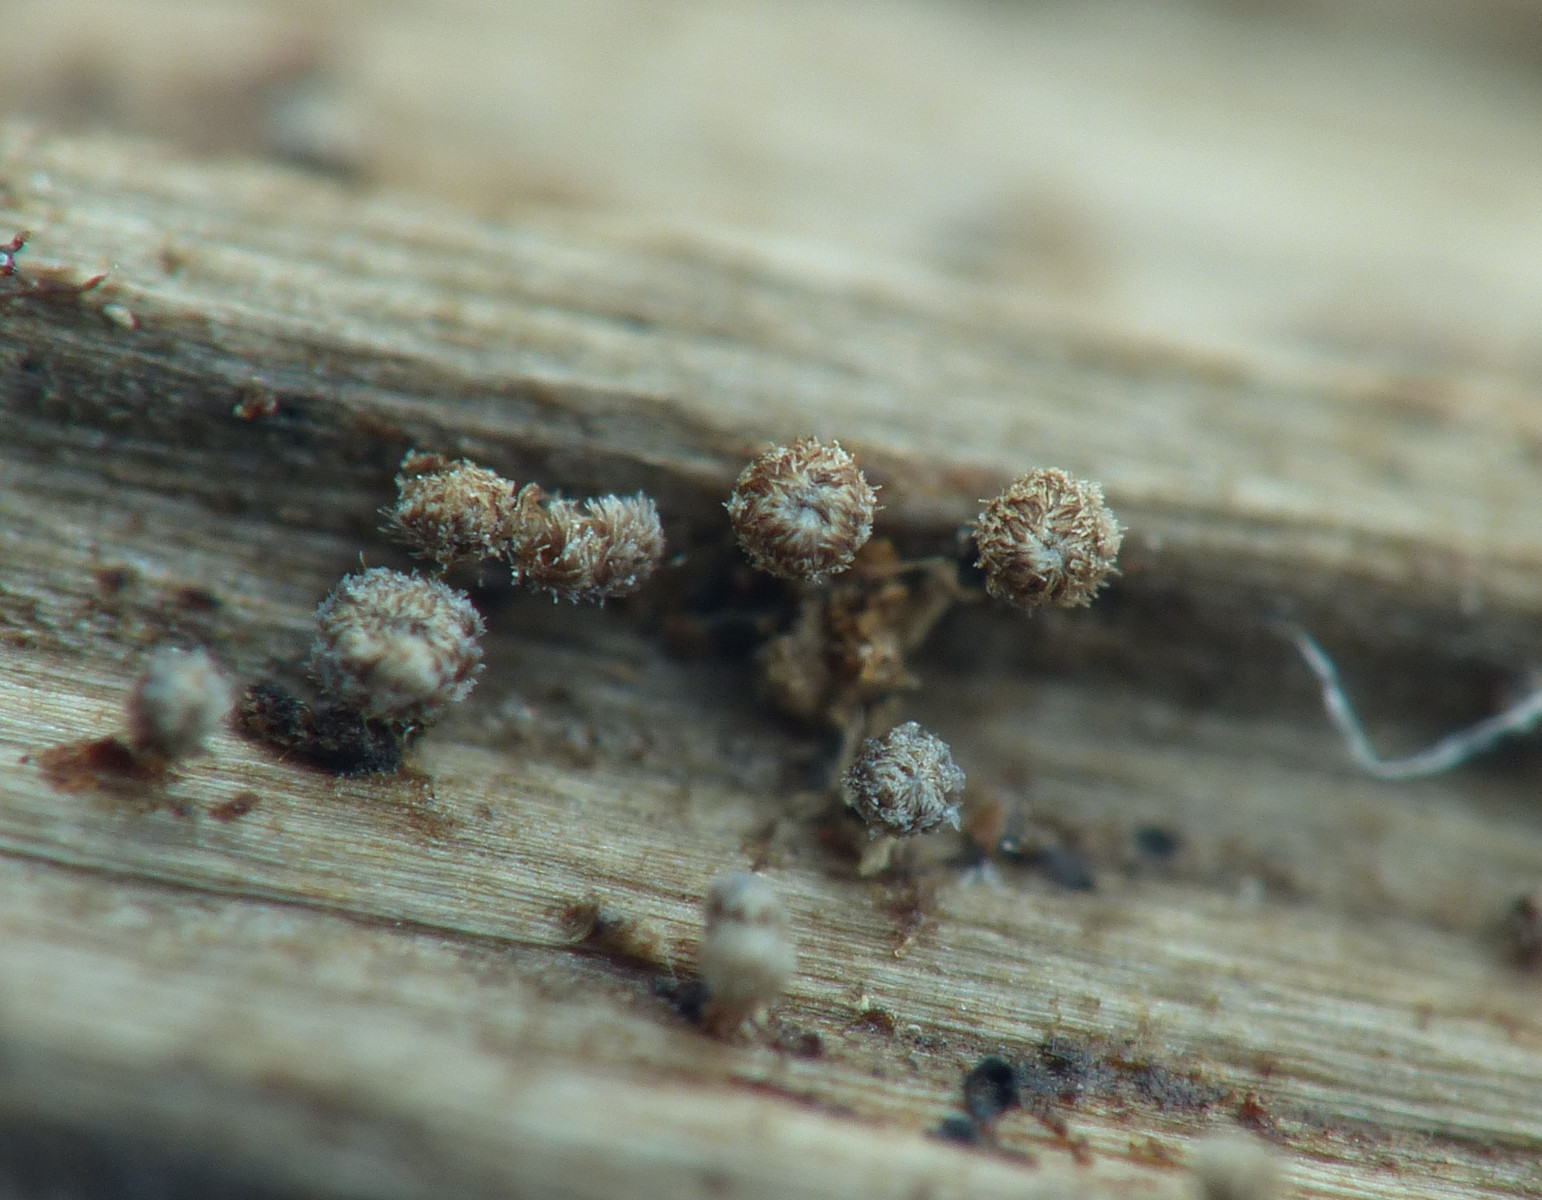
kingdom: Fungi
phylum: Ascomycota
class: Leotiomycetes
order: Helotiales
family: Lachnaceae
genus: Brunnipila
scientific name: Brunnipila
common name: frynseskive
